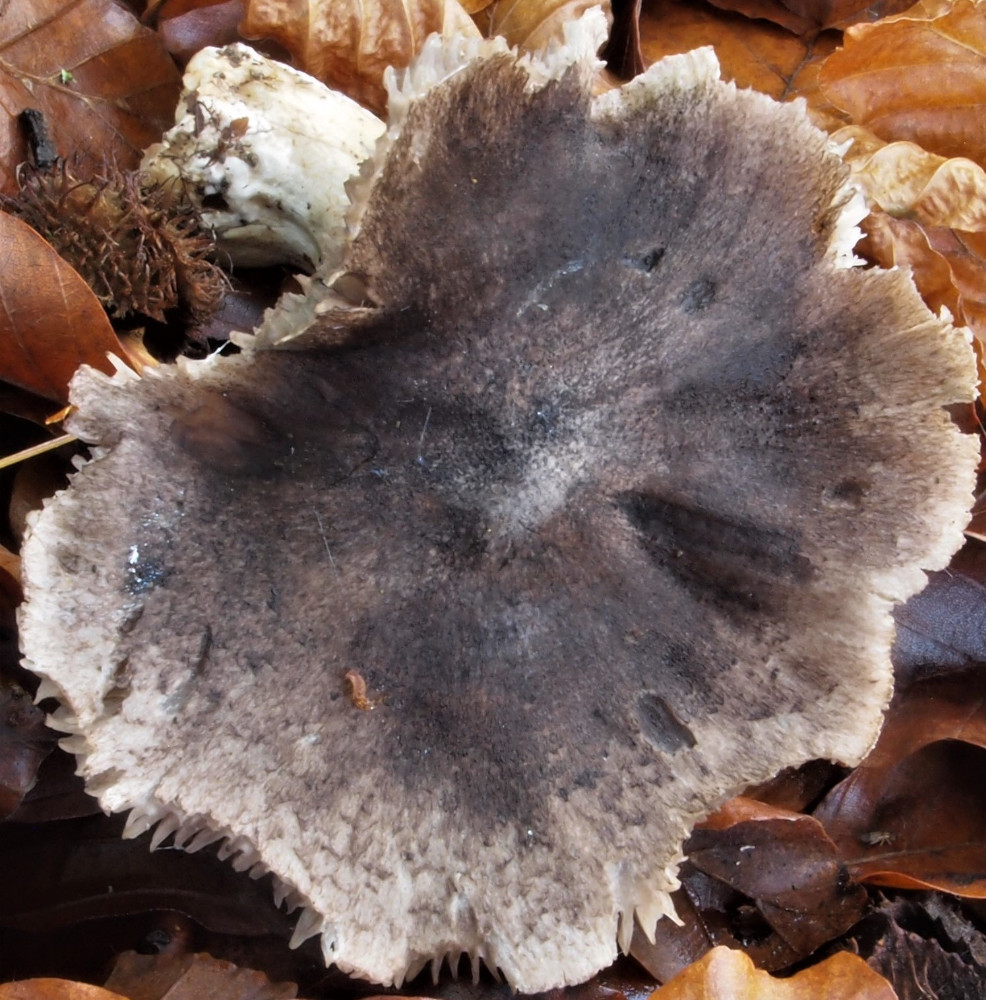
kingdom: Fungi
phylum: Basidiomycota
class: Agaricomycetes
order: Agaricales
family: Tricholomataceae
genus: Tricholoma
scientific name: Tricholoma sciodes
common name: stribet ridderhat
